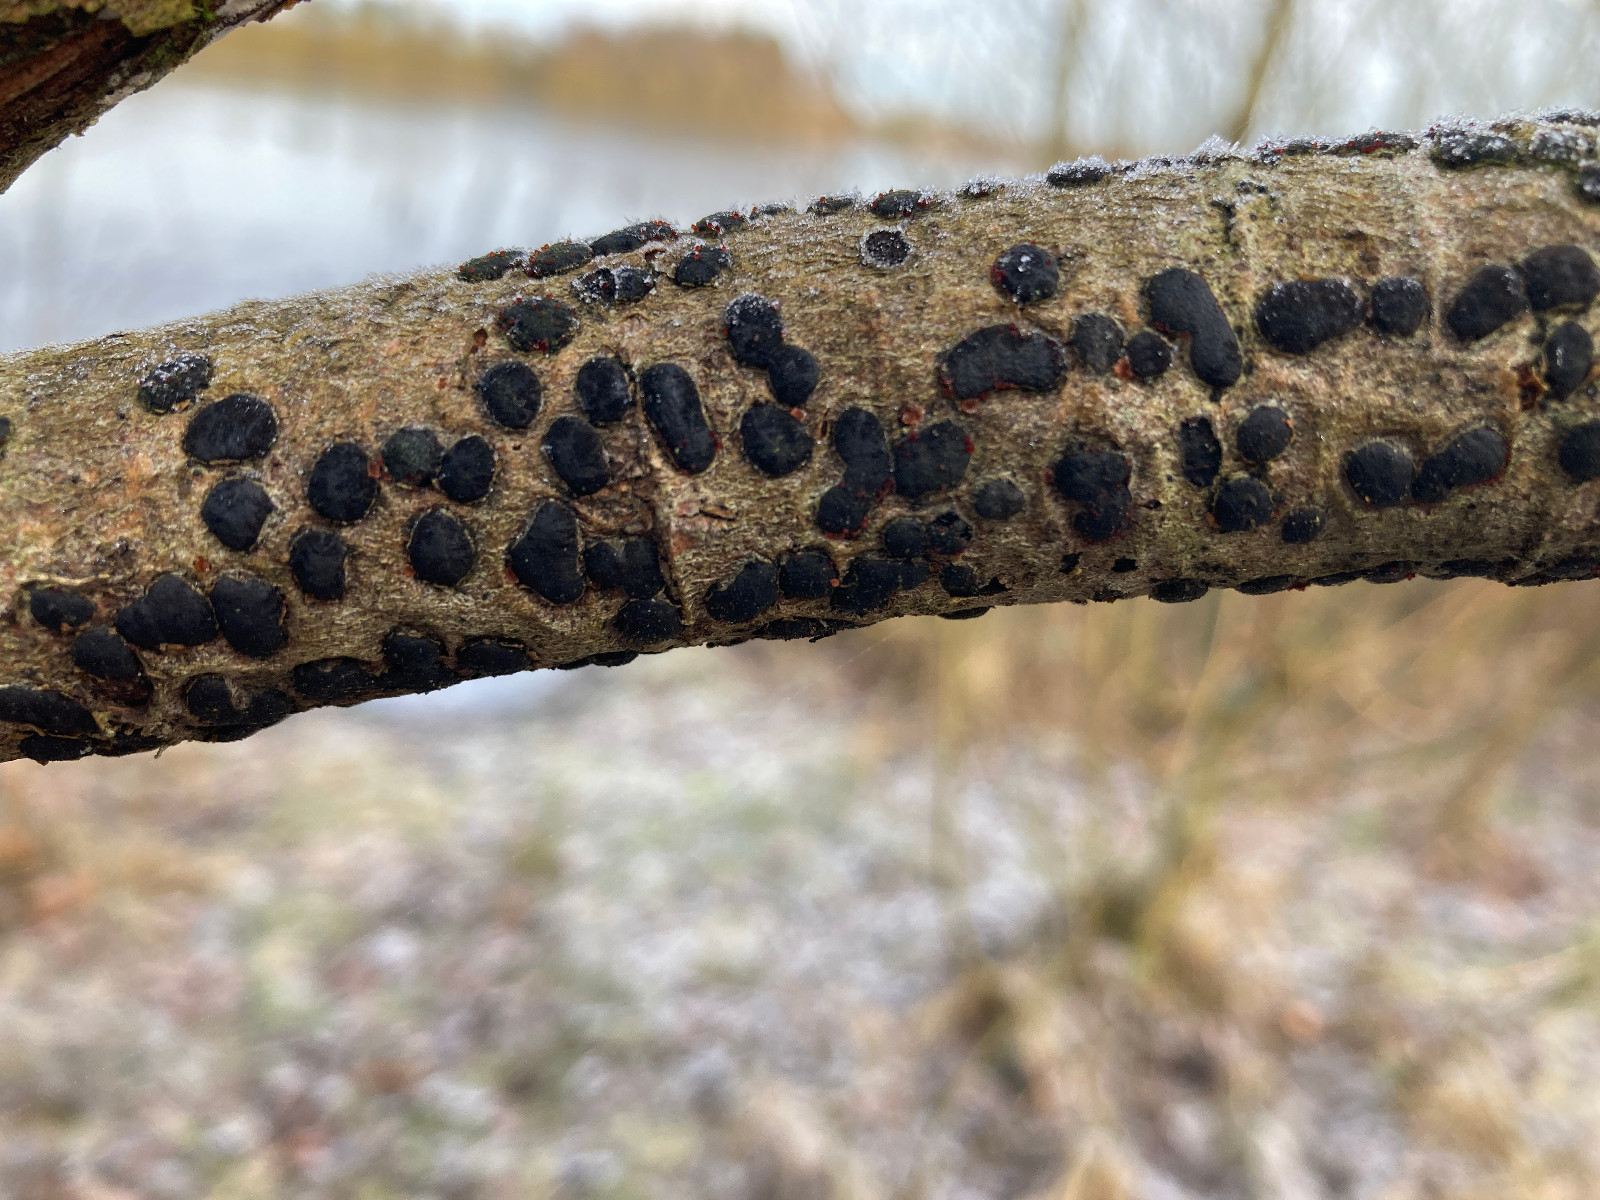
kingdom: Fungi
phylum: Ascomycota
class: Sordariomycetes
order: Xylariales
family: Diatrypaceae
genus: Diatrype
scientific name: Diatrype bullata
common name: pile-kulskorpe
